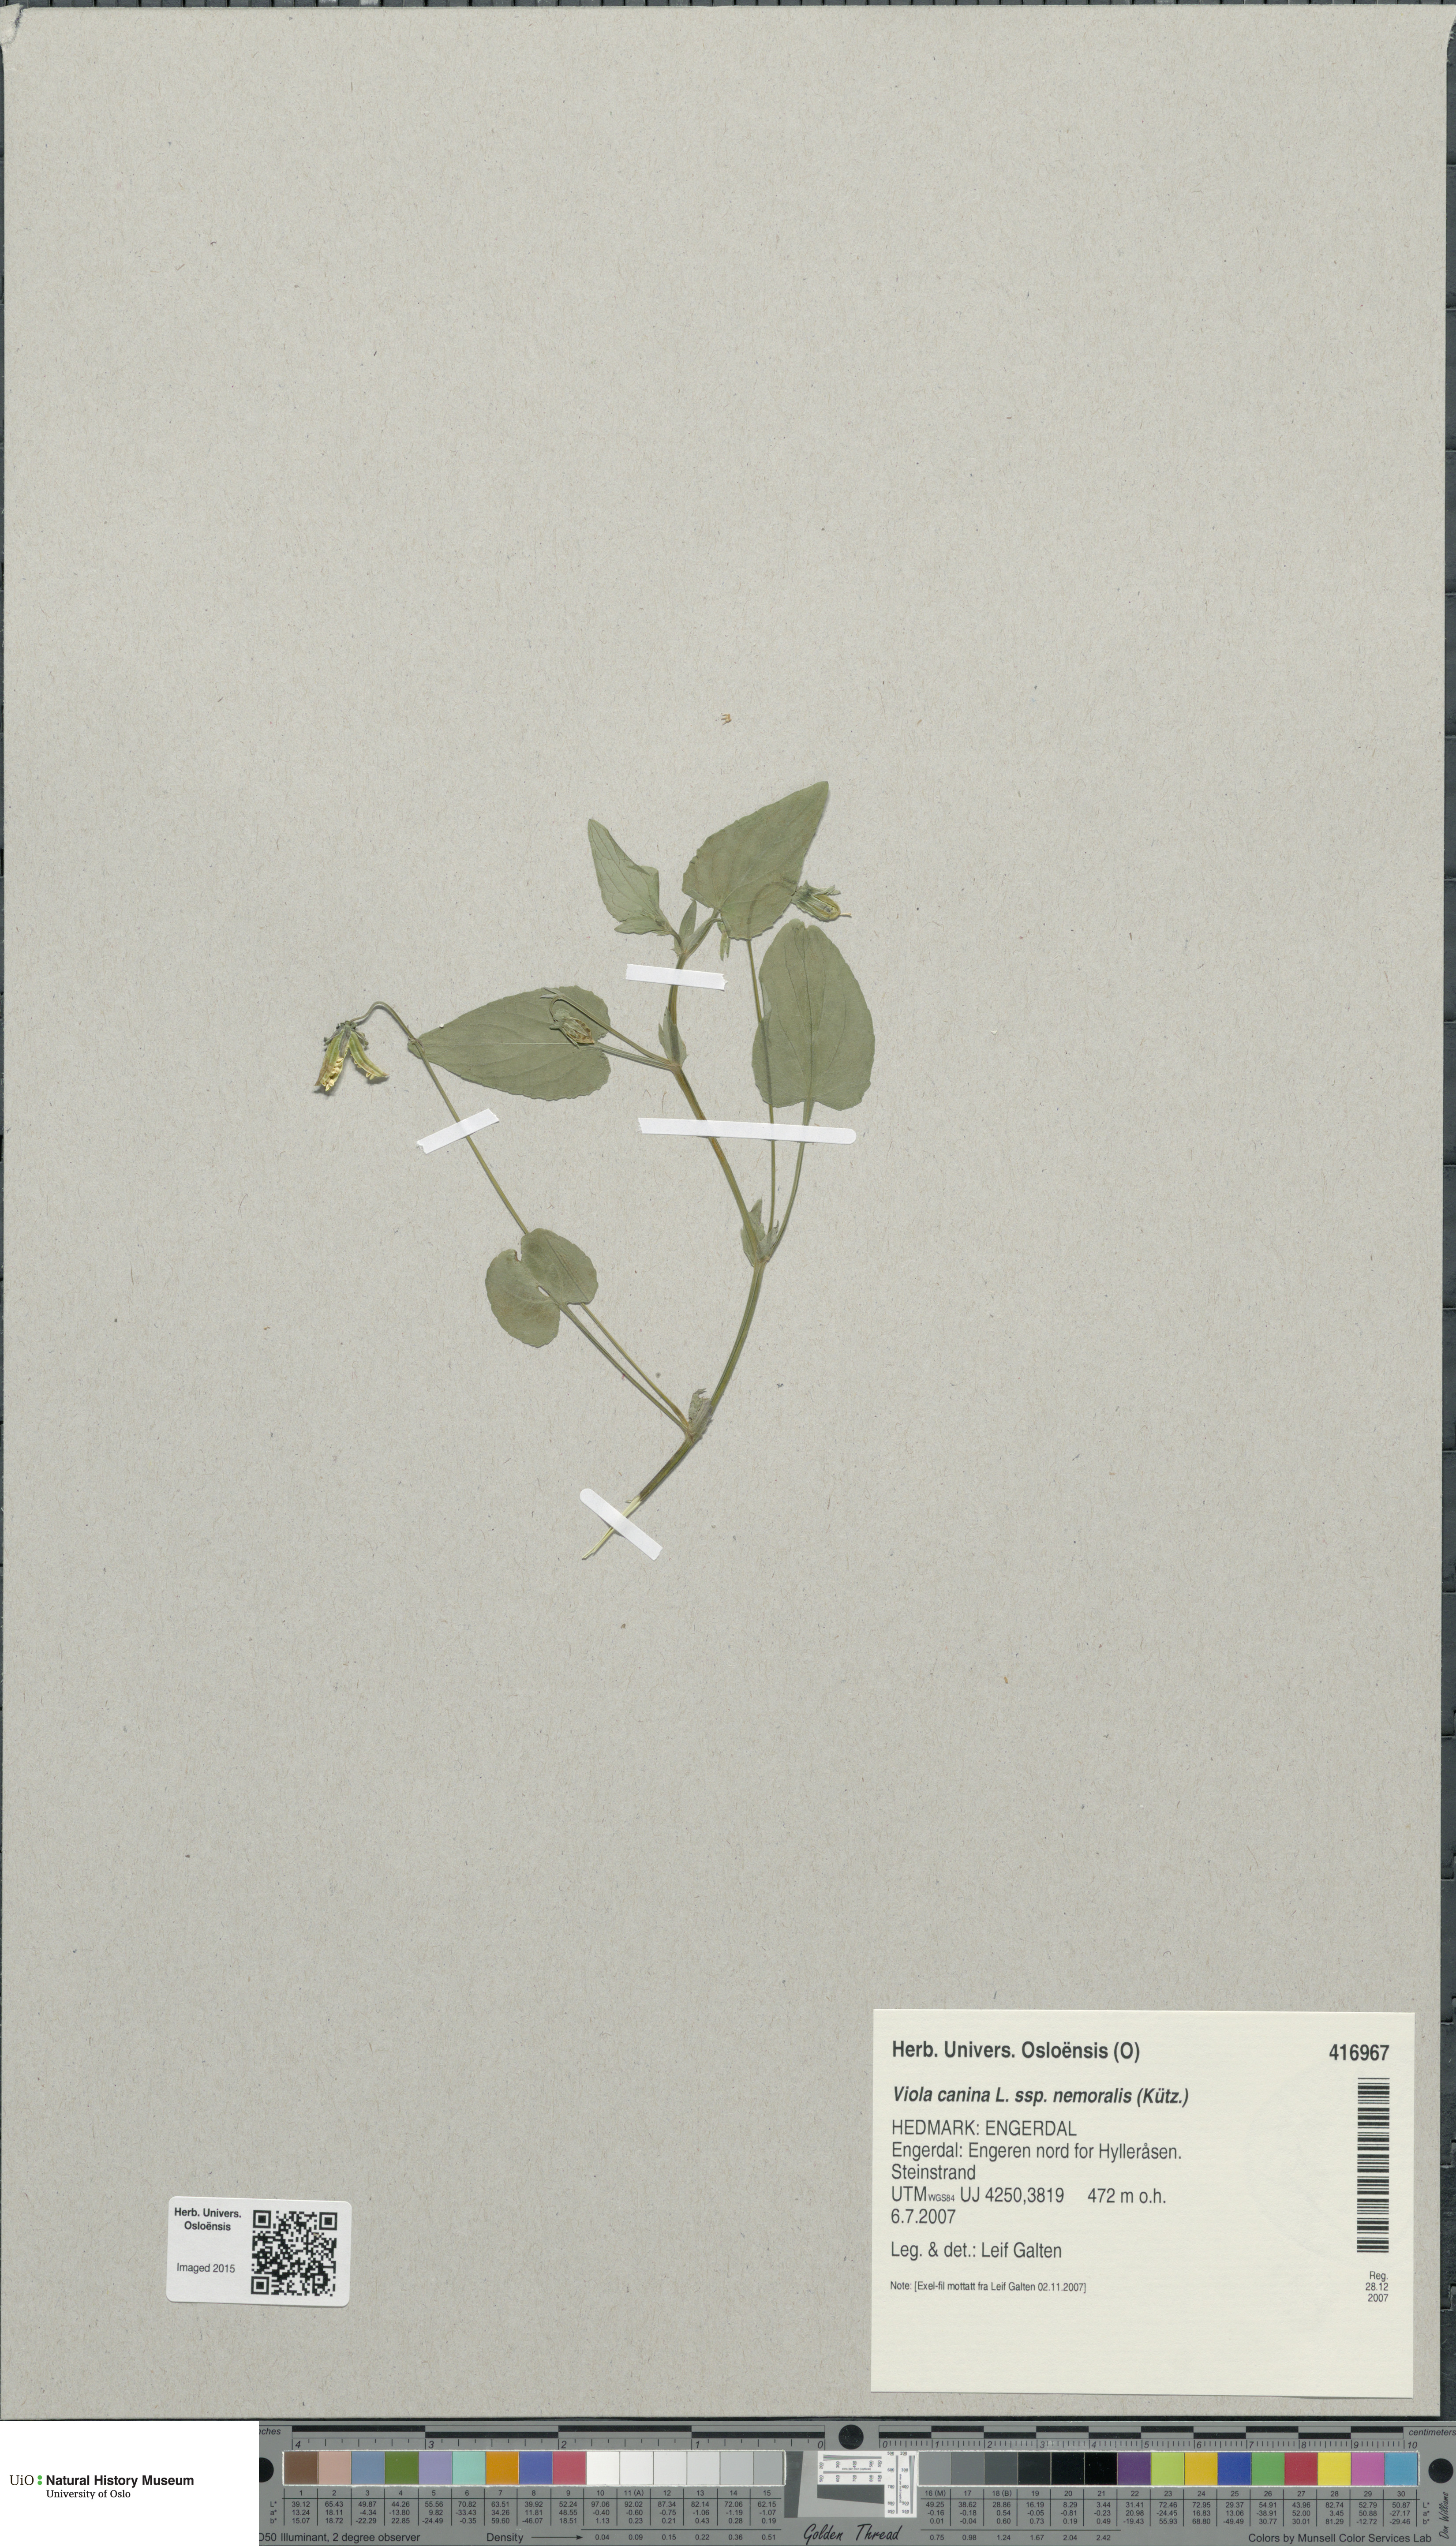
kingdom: Plantae
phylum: Tracheophyta
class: Magnoliopsida
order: Malpighiales
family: Violaceae
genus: Viola
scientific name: Viola ruppii
